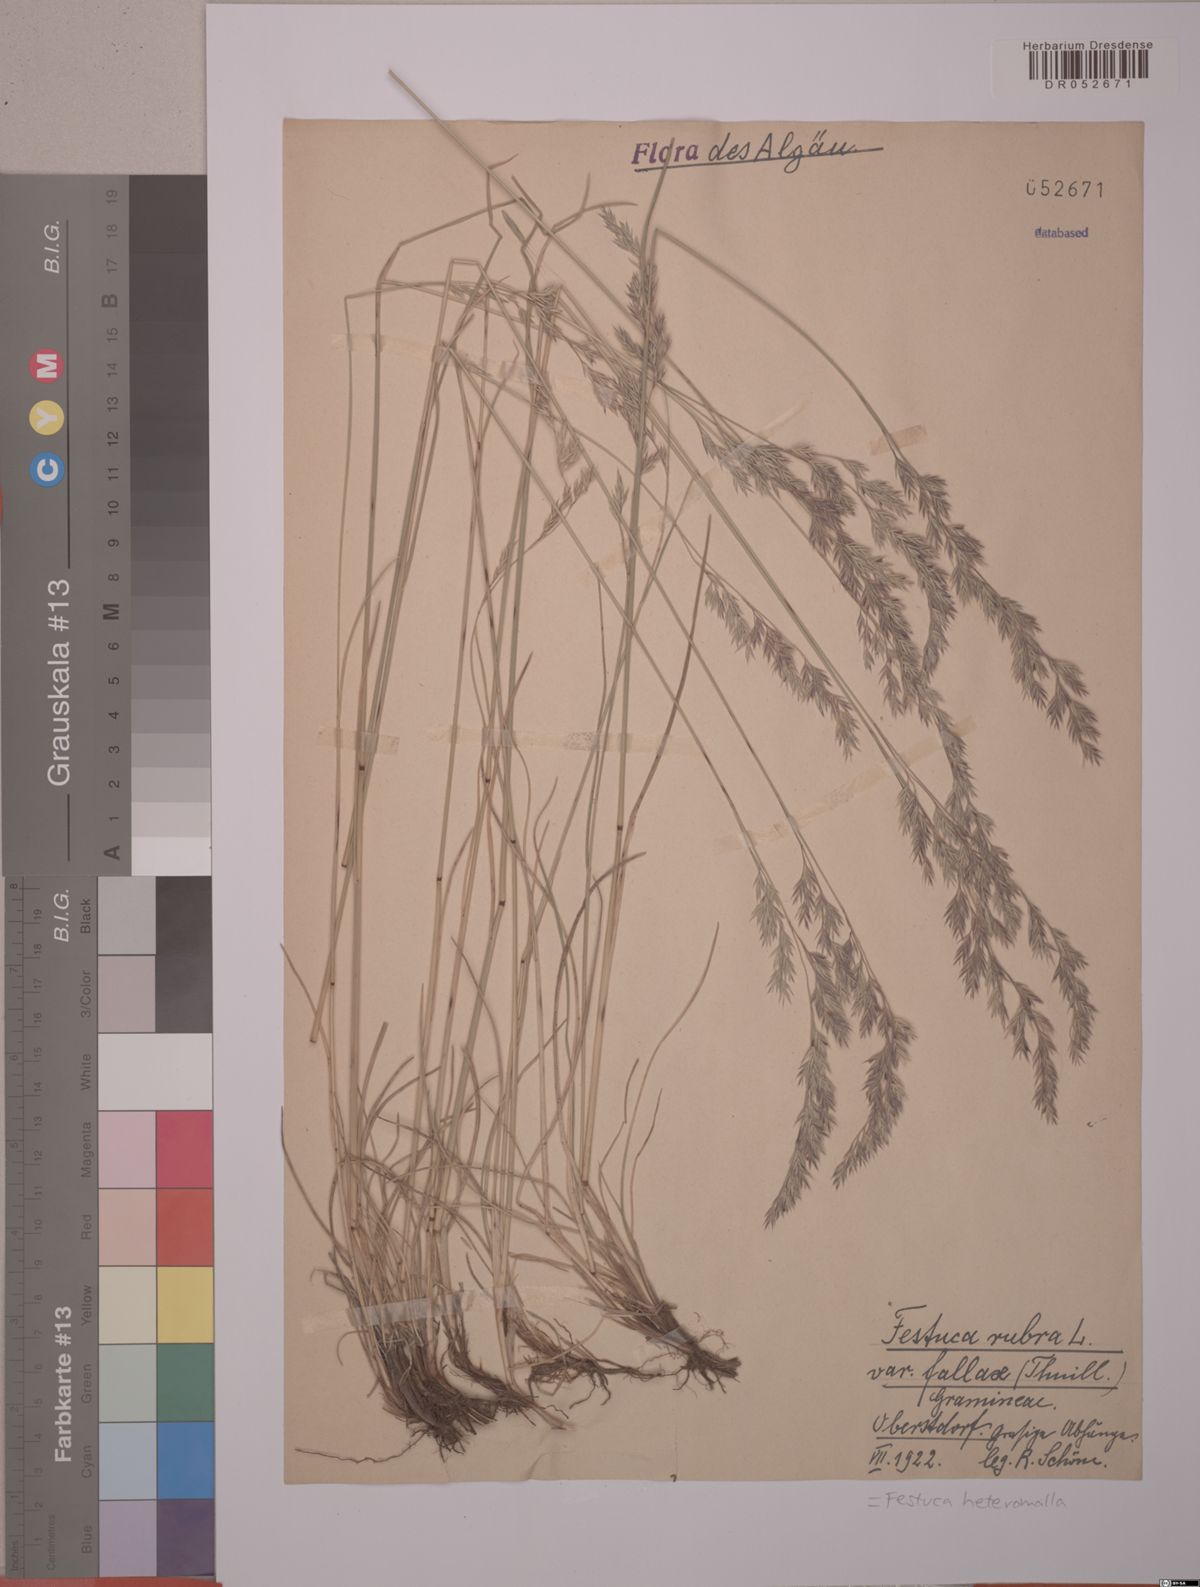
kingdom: Plantae
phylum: Tracheophyta
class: Liliopsida
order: Poales
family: Poaceae
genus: Festuca
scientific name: Festuca heteromalla
